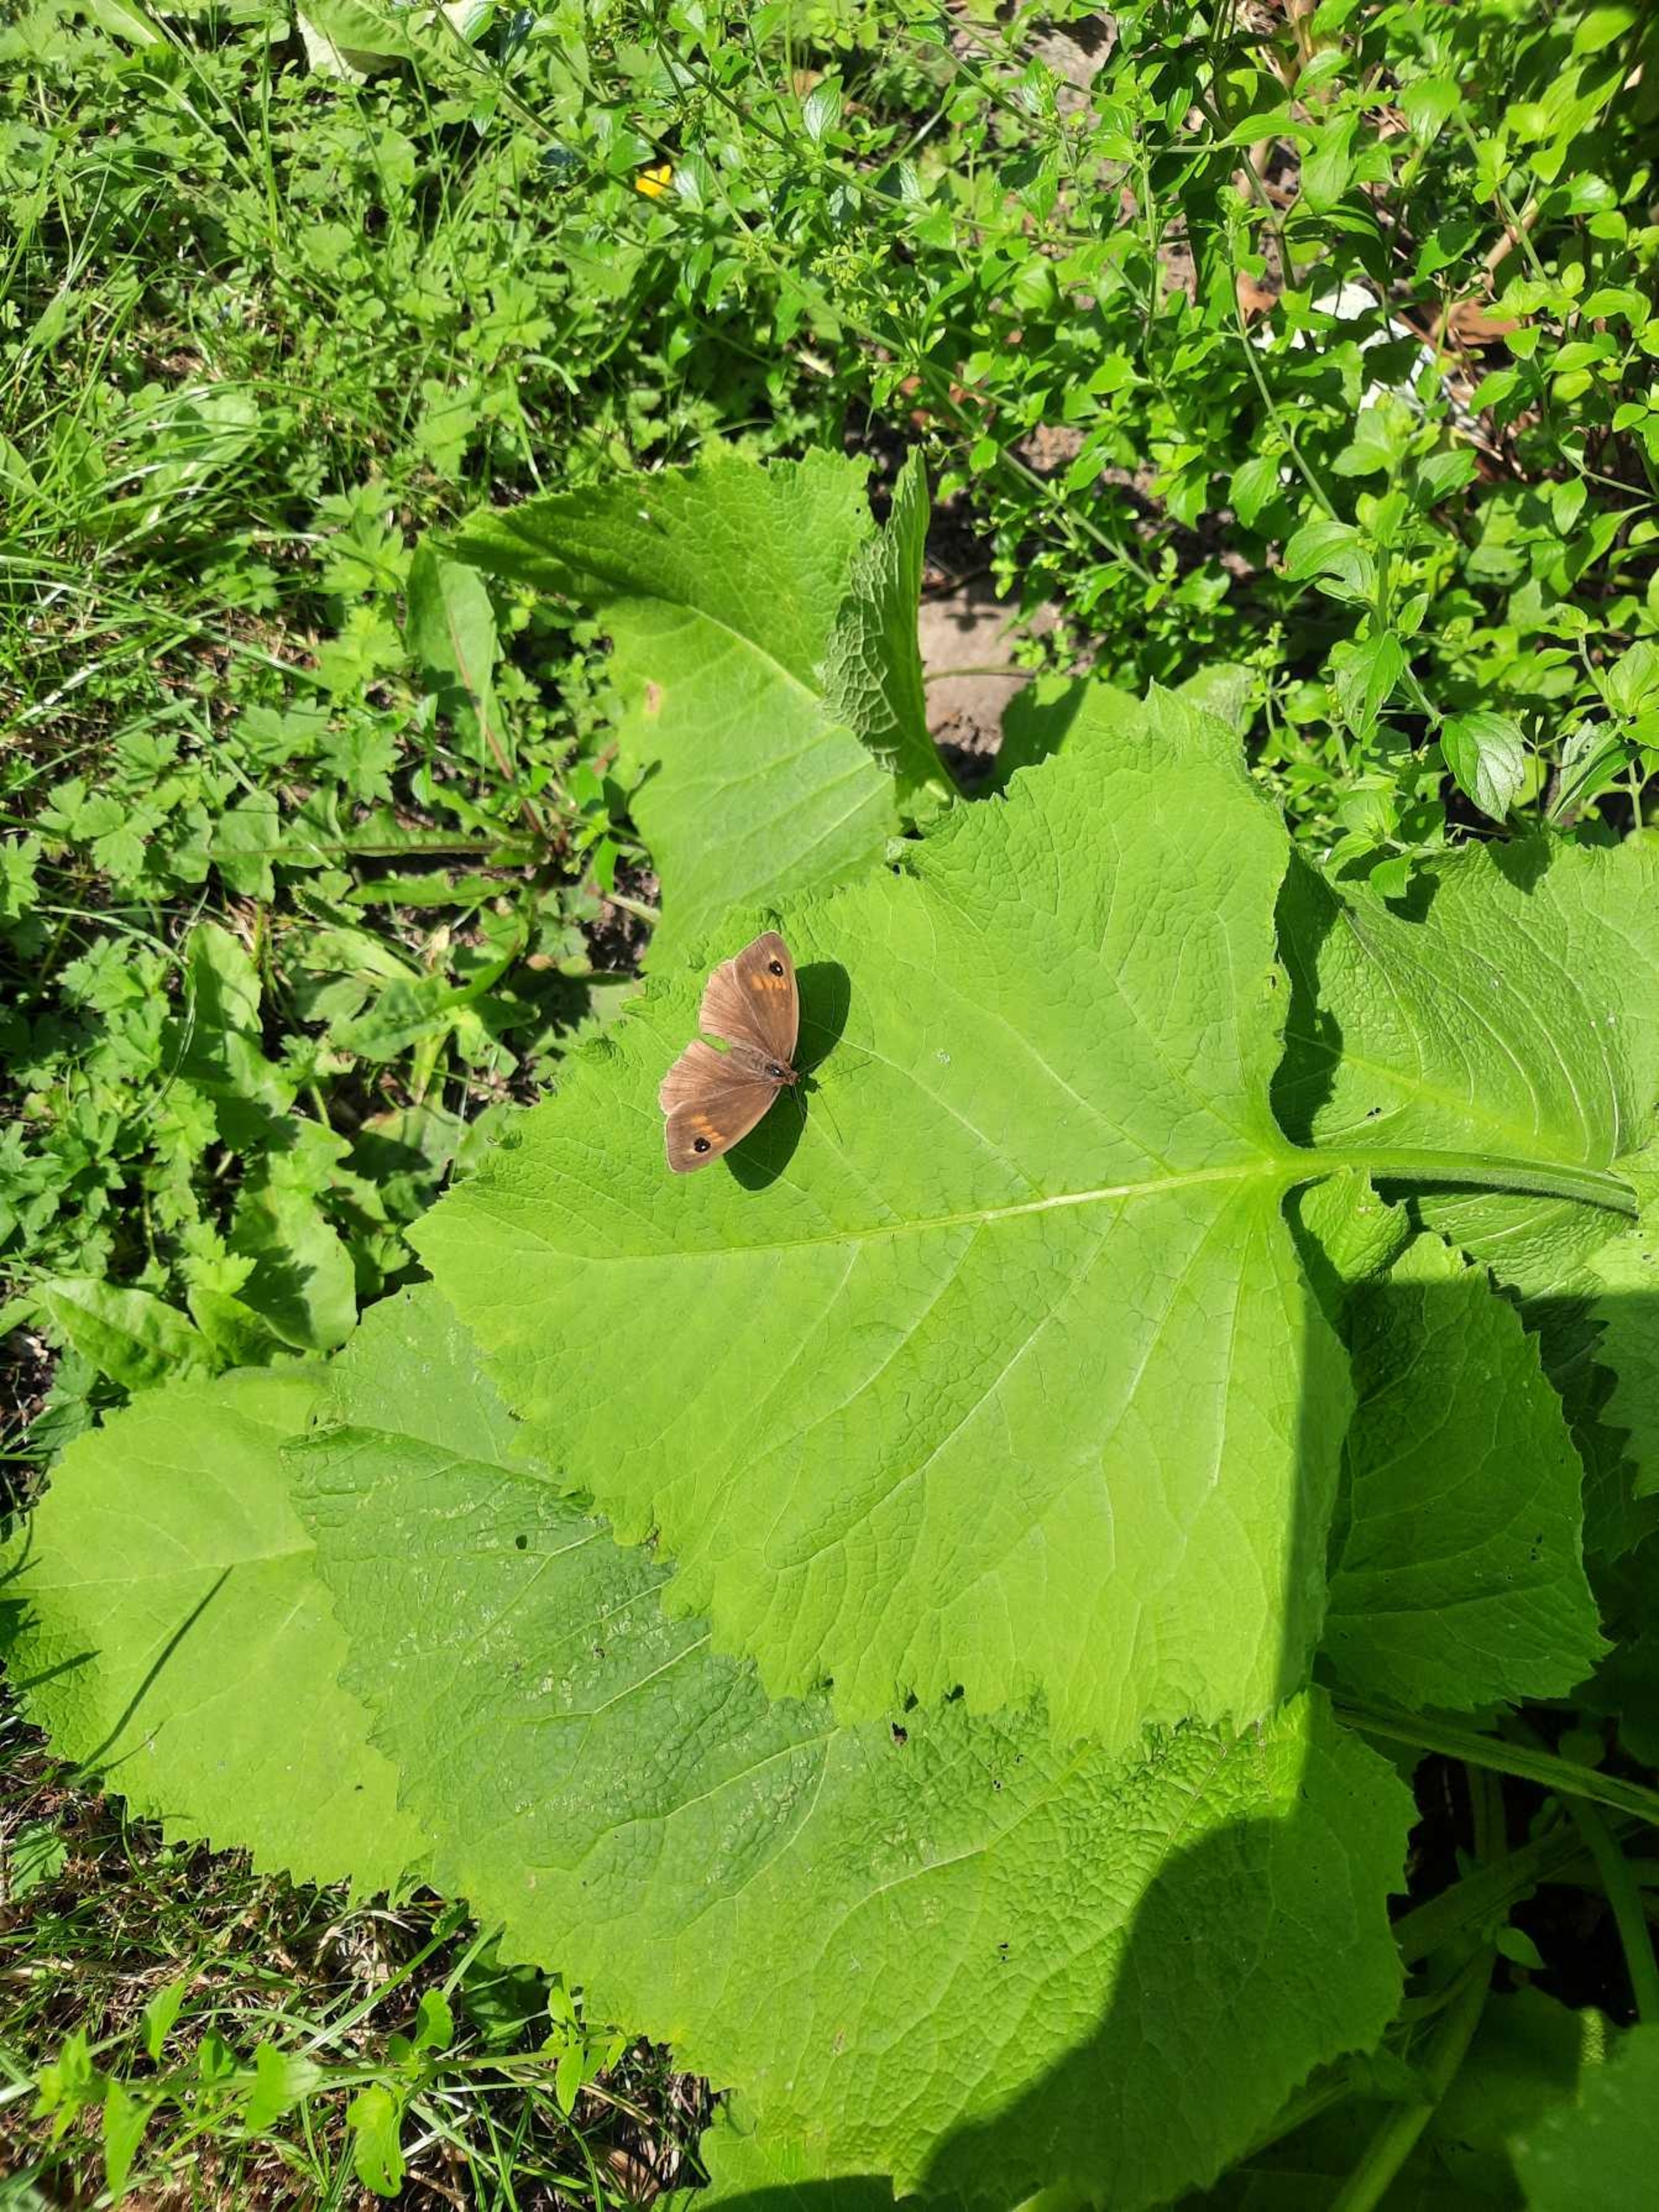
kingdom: Animalia
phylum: Arthropoda
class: Insecta
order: Lepidoptera
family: Nymphalidae
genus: Maniola
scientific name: Maniola jurtina
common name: Græsrandøje
